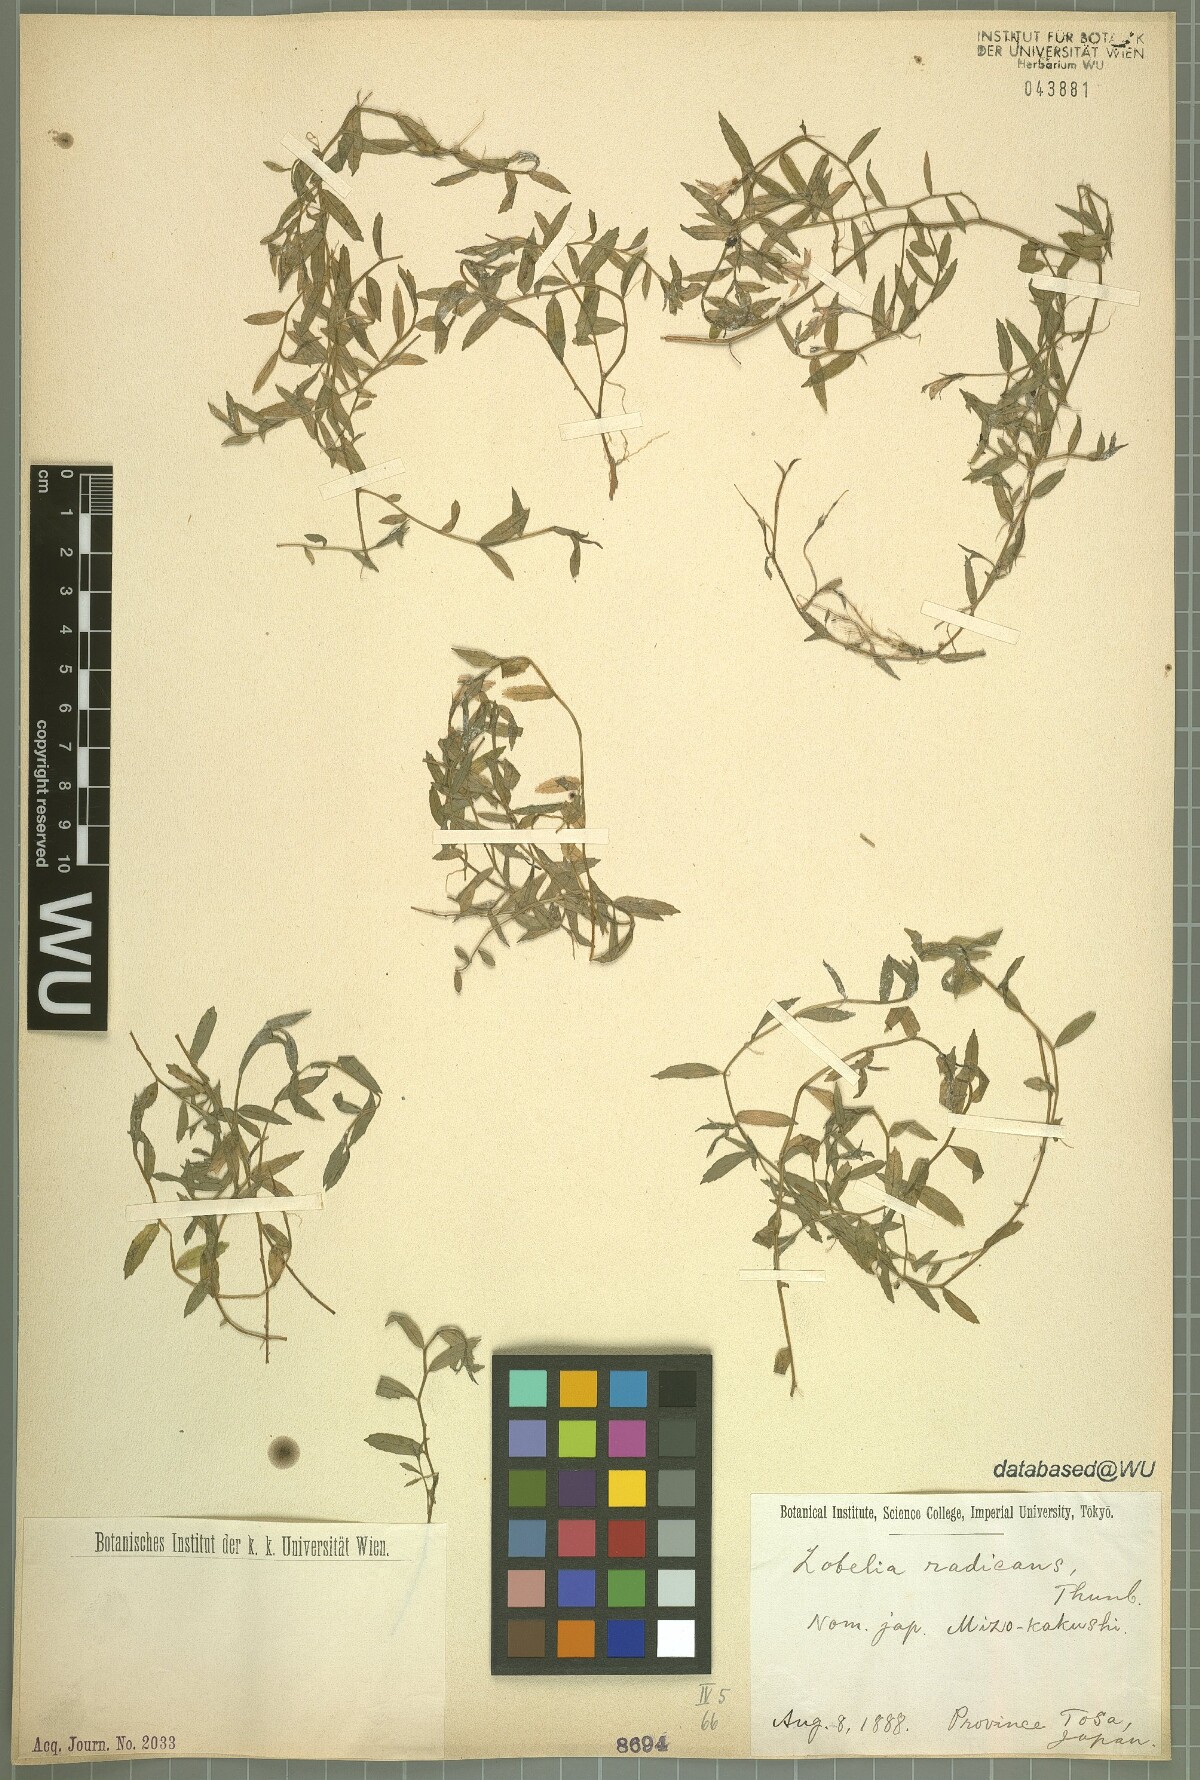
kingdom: Plantae
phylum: Tracheophyta
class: Magnoliopsida
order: Asterales
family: Campanulaceae
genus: Lobelia
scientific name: Lobelia chinensis
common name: Chinese lobelia
